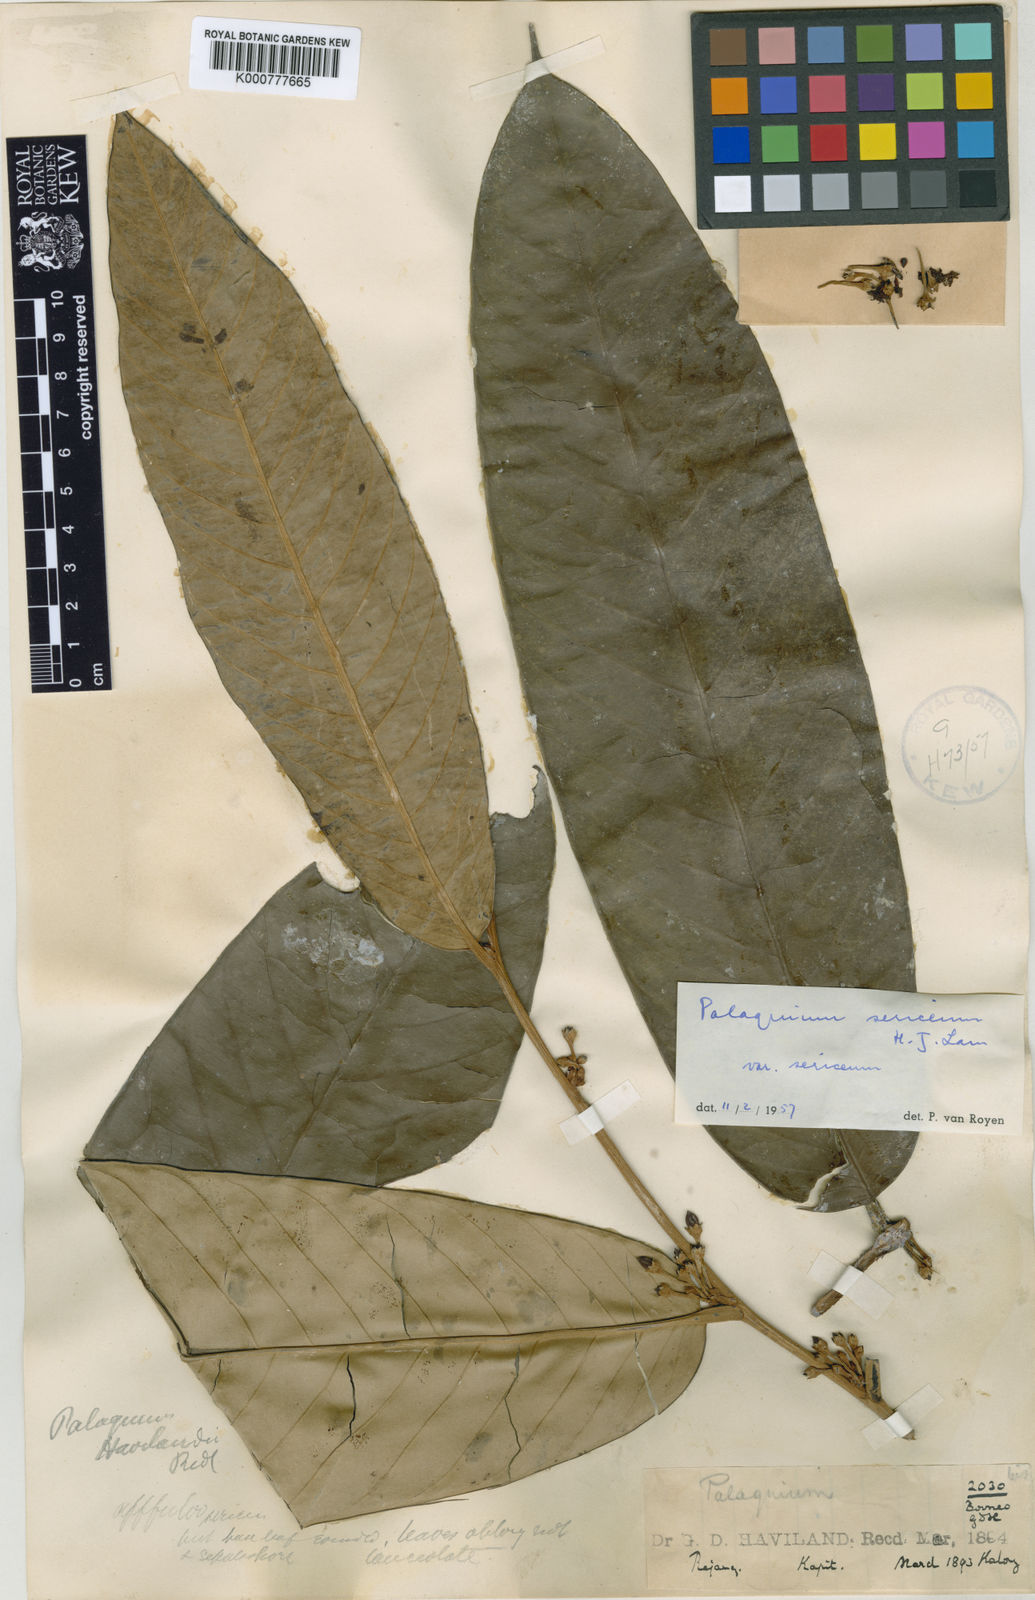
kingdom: Plantae
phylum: Tracheophyta
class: Magnoliopsida
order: Ericales
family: Sapotaceae
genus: Palaquium
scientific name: Palaquium sericeum
